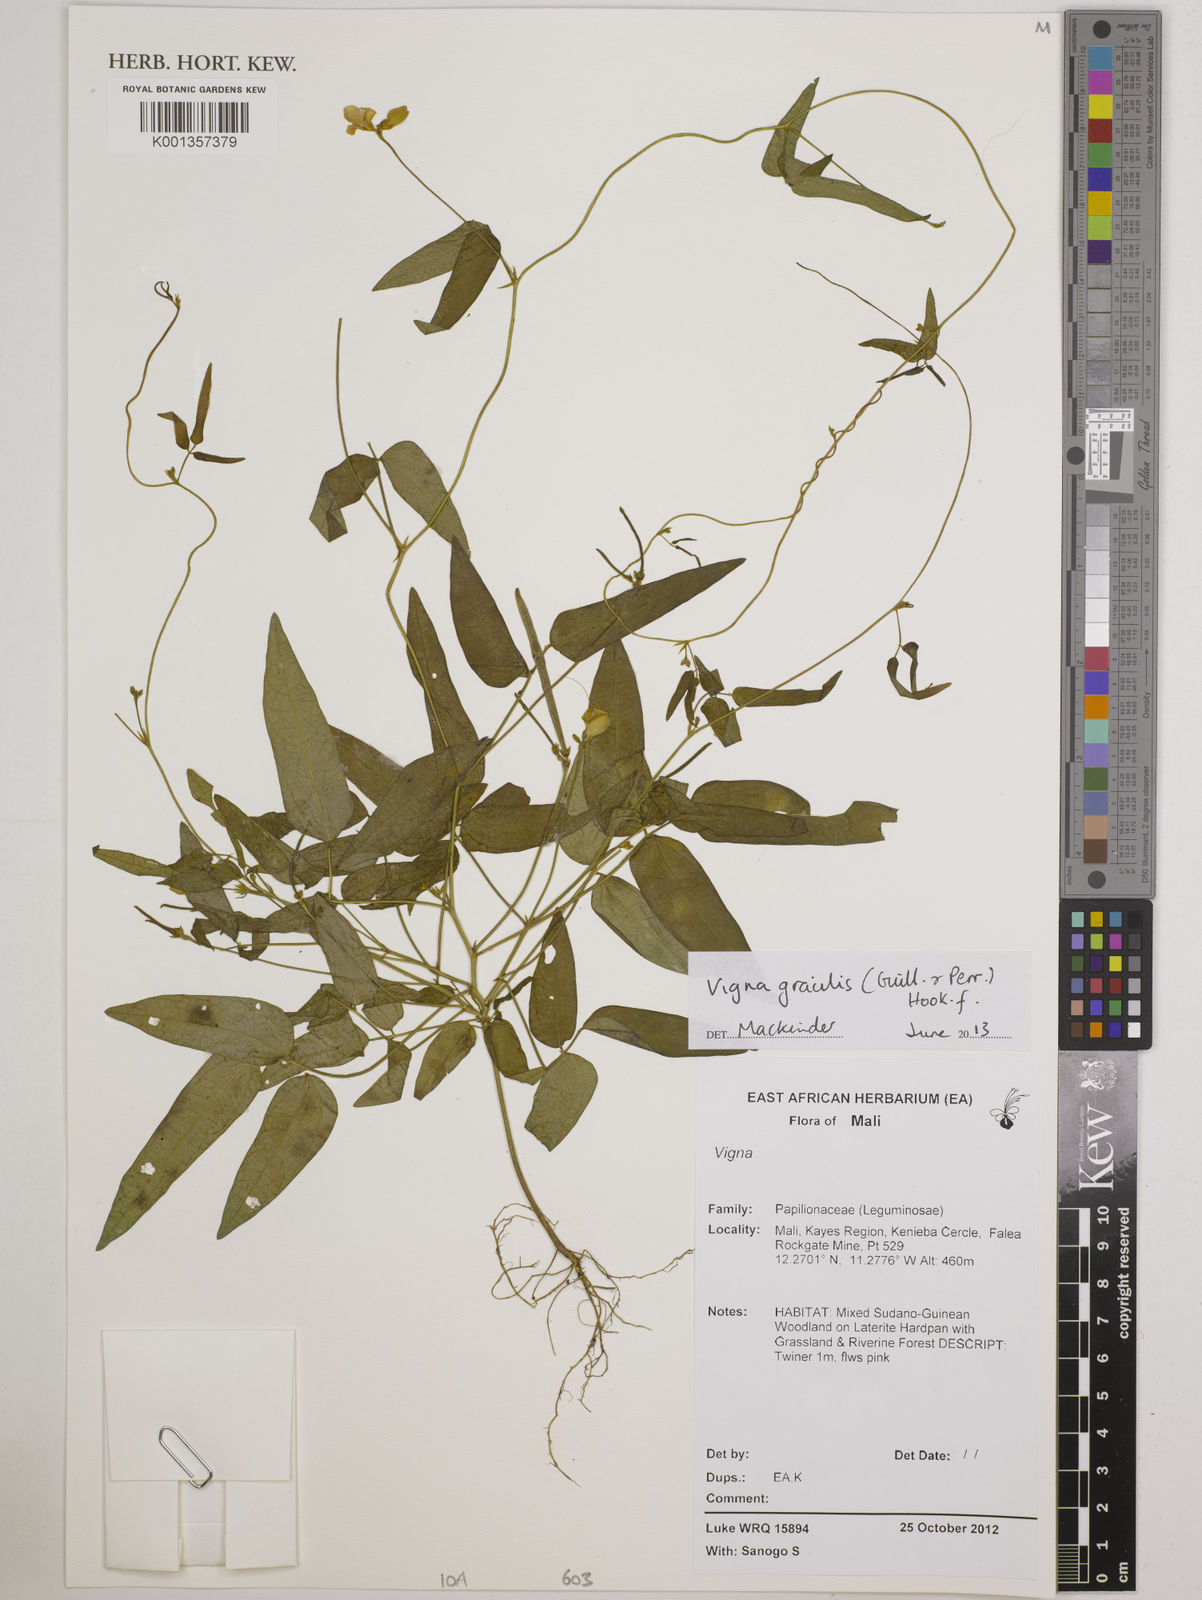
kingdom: Plantae
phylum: Tracheophyta
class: Magnoliopsida
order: Fabales
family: Fabaceae
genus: Vigna
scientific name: Vigna gracilis
